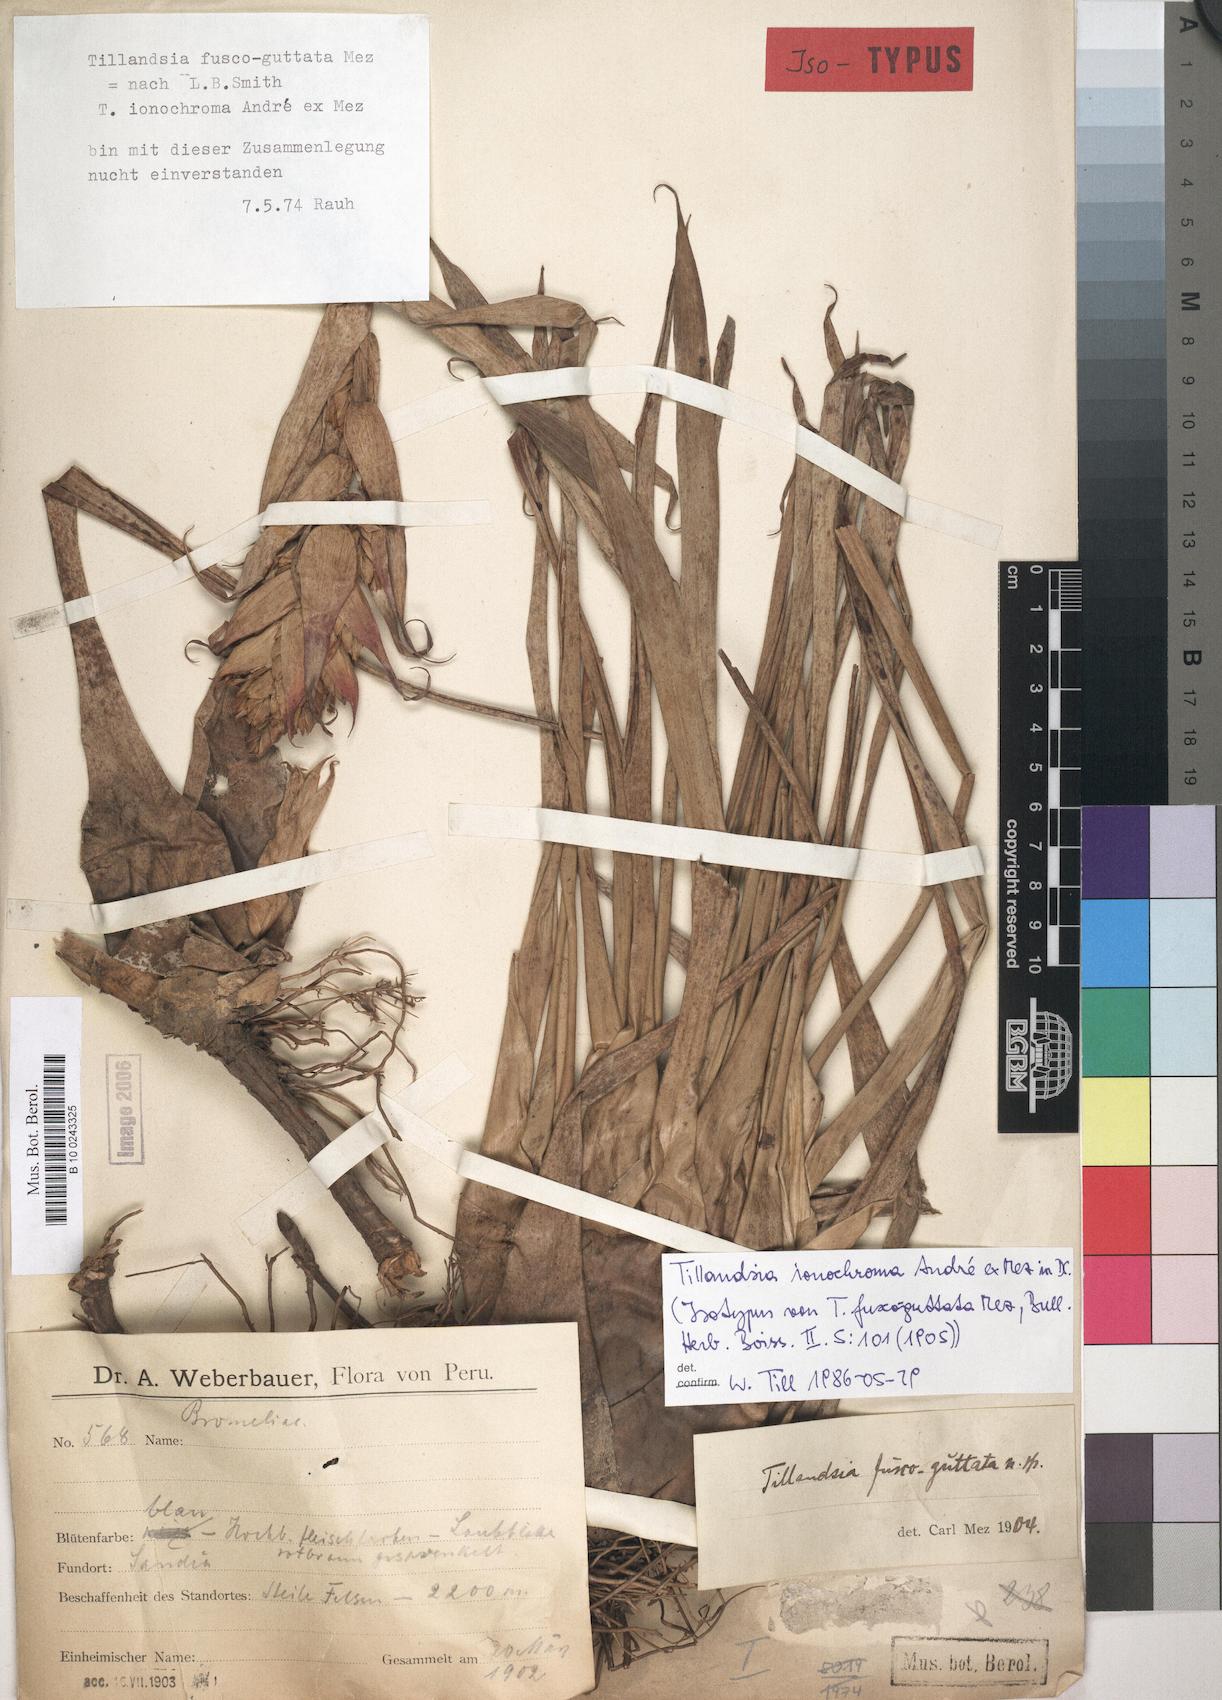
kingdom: Plantae
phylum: Tracheophyta
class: Liliopsida
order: Poales
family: Bromeliaceae
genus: Tillandsia
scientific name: Tillandsia ionochroma
